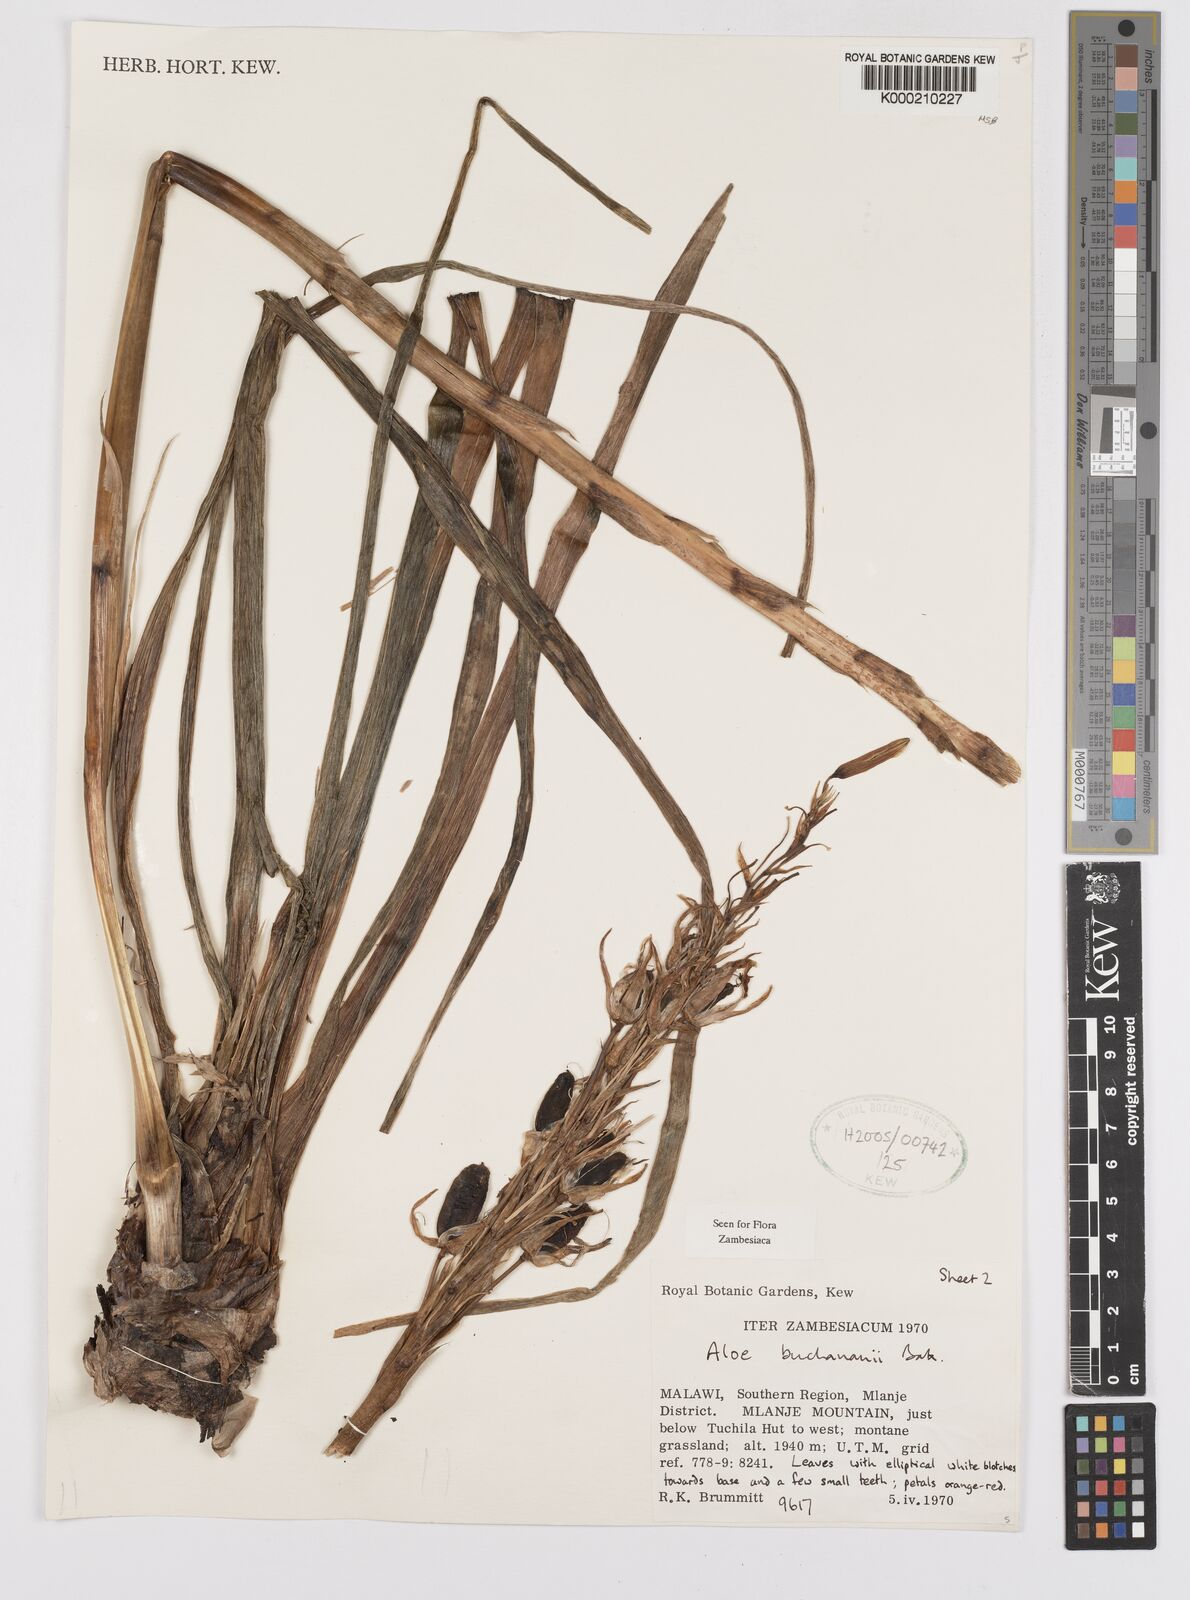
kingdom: Plantae
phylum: Tracheophyta
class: Liliopsida
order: Asparagales
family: Asphodelaceae
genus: Aloe
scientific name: Aloe buchananii
